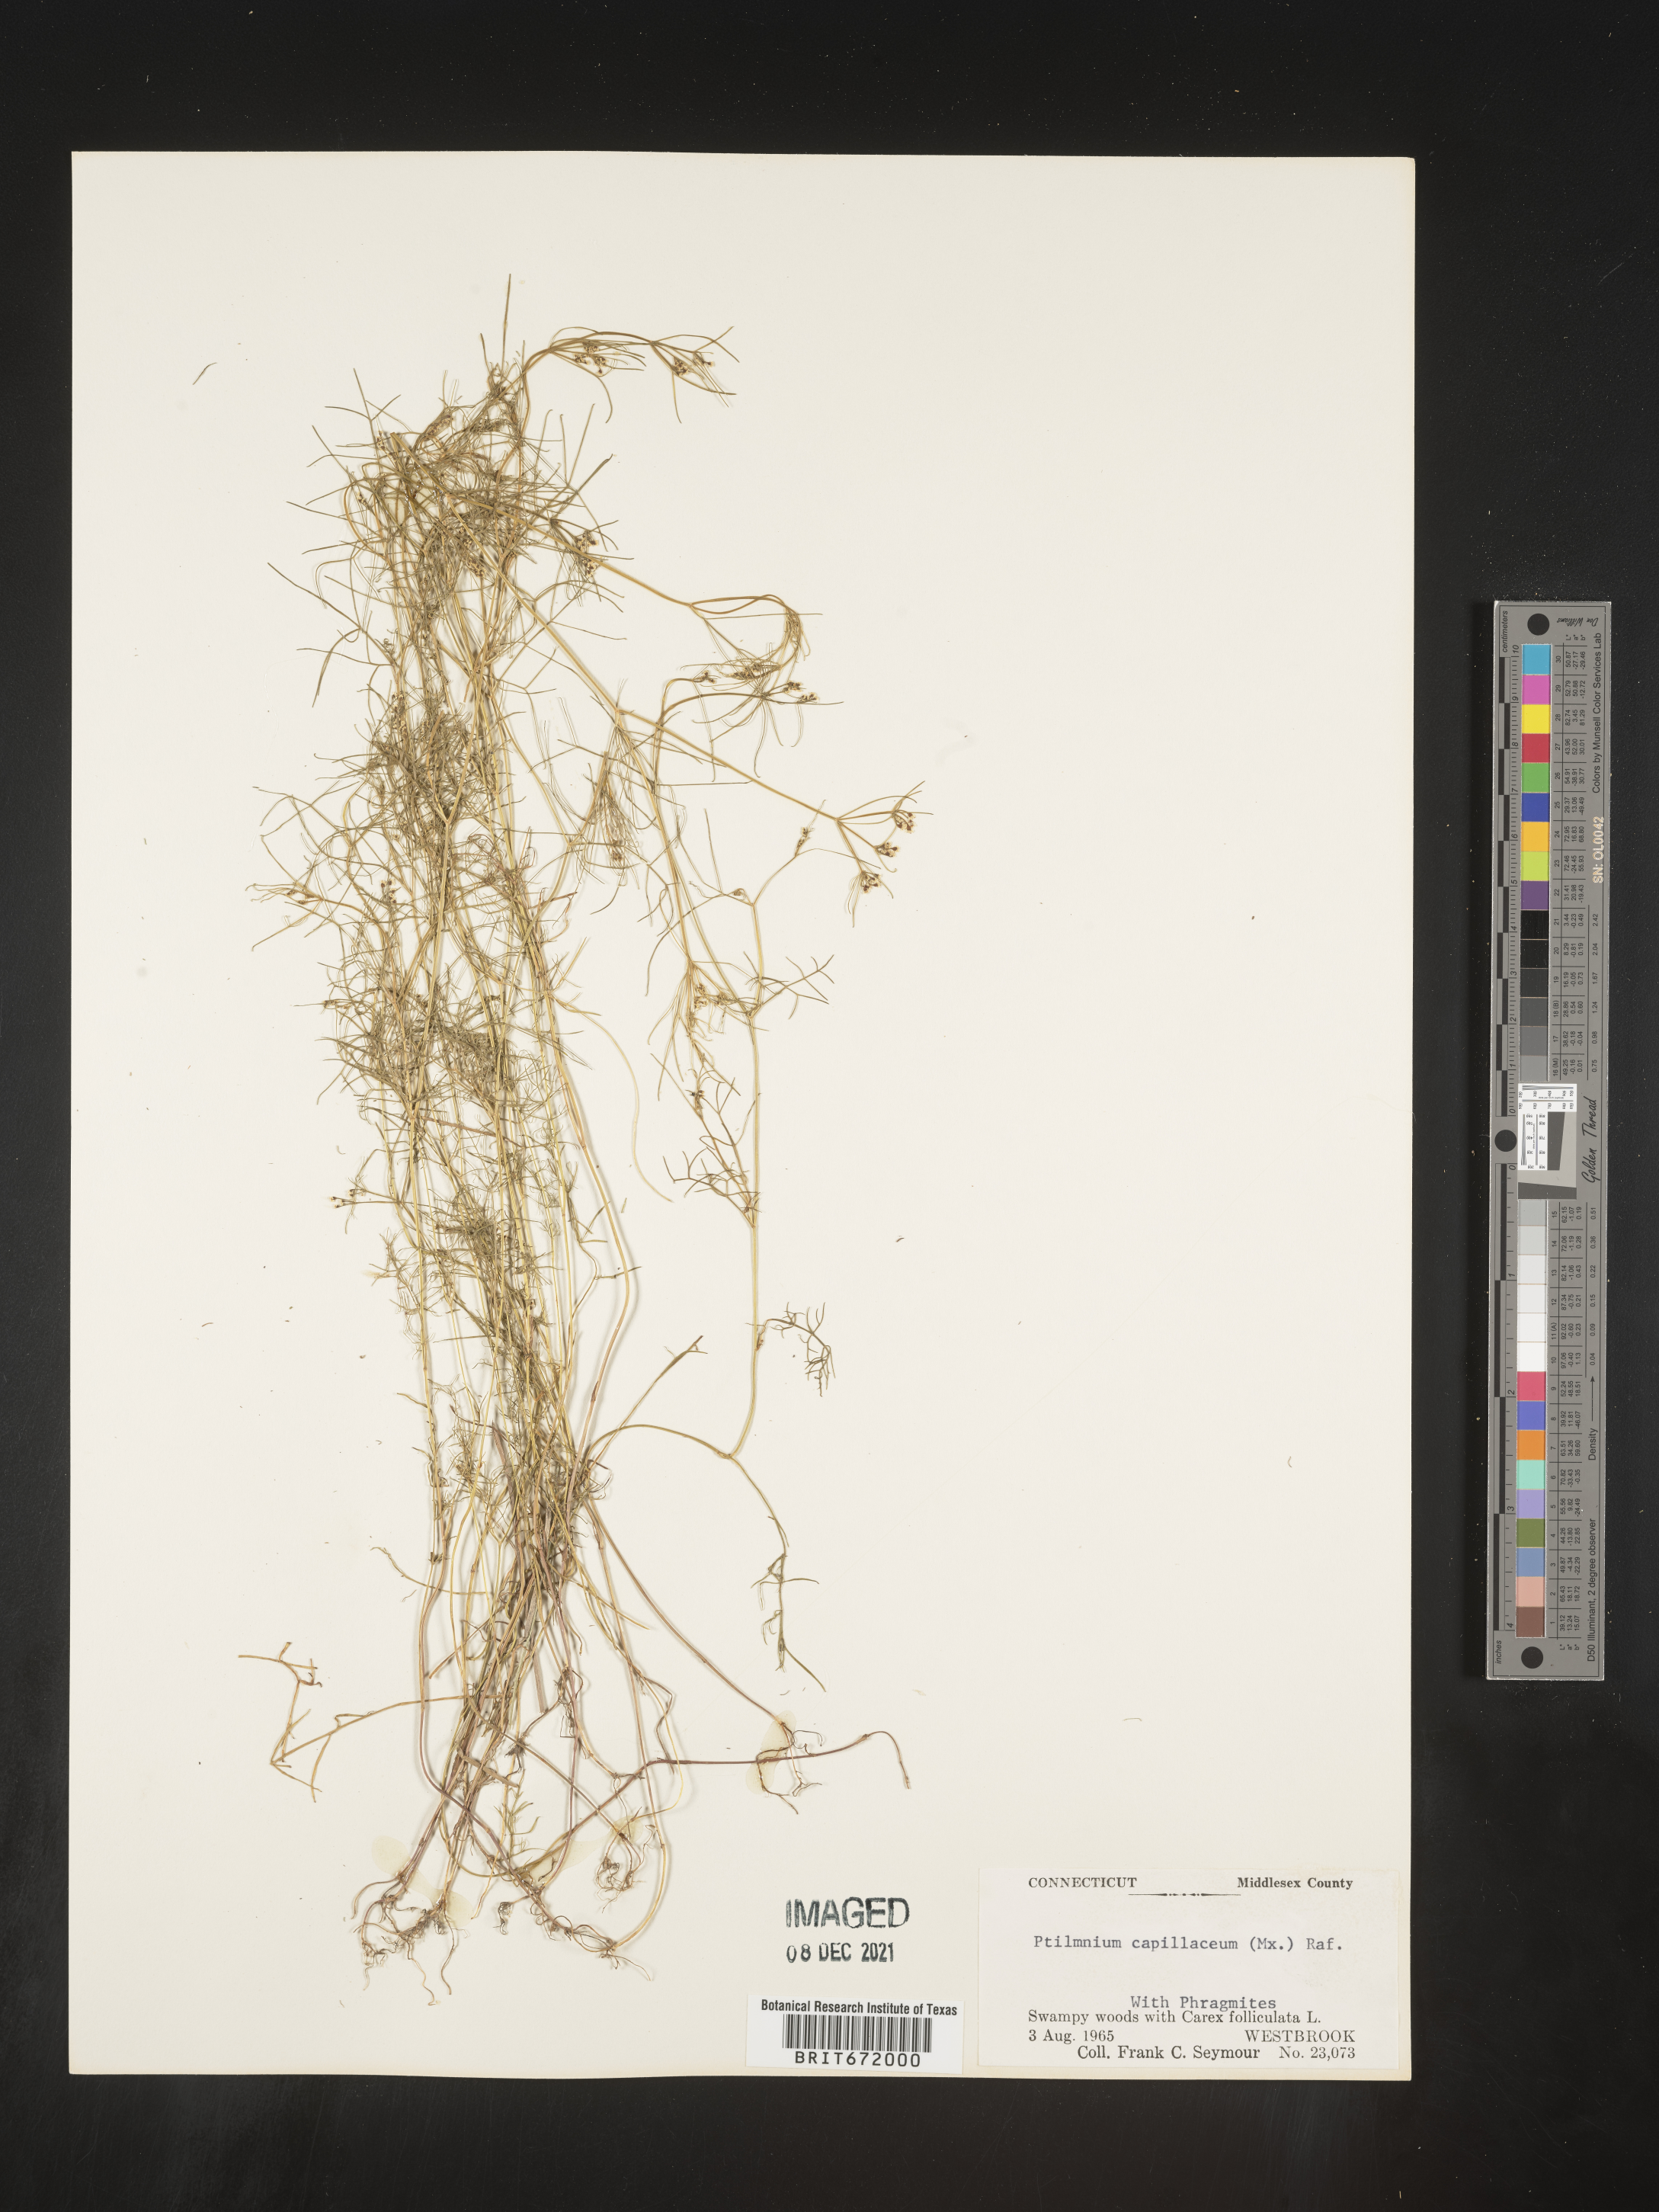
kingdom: Plantae
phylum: Tracheophyta
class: Magnoliopsida
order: Apiales
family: Apiaceae
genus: Ptilimnium
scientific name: Ptilimnium capillaceum
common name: Herbwilliam
